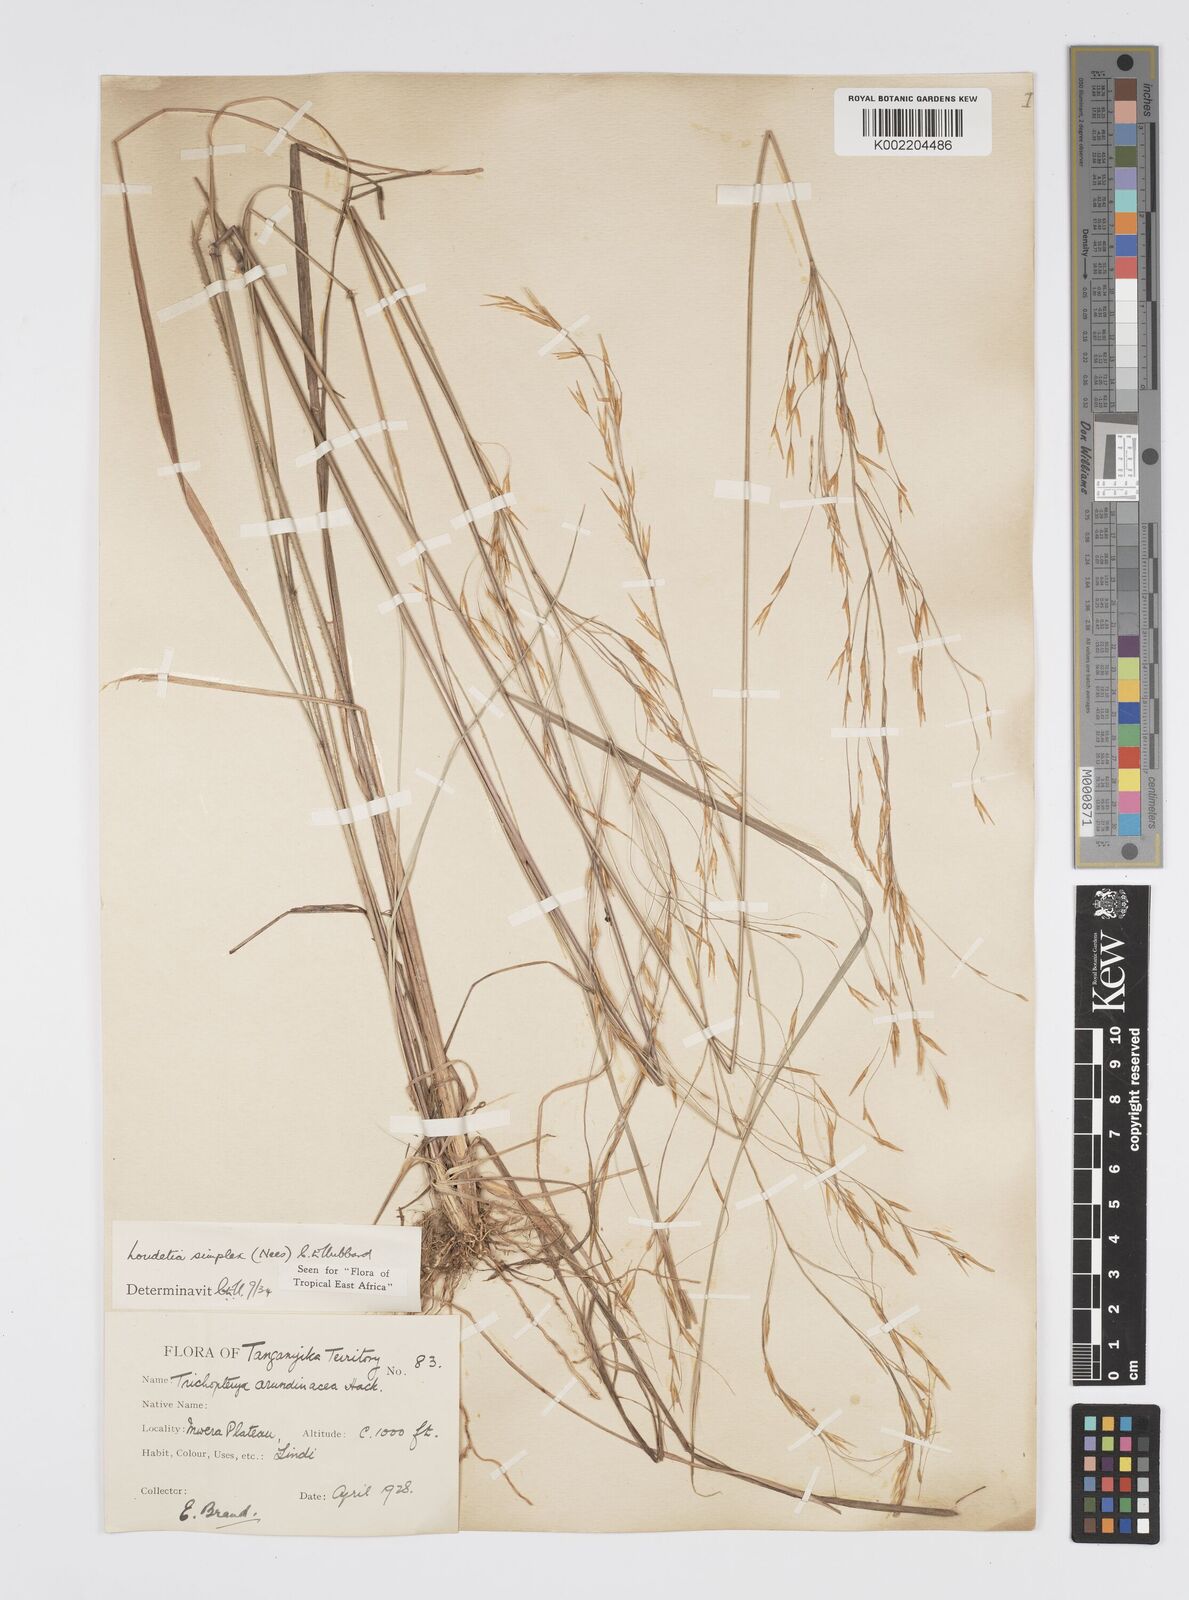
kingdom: Plantae
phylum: Tracheophyta
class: Liliopsida
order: Poales
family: Poaceae
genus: Loudetia
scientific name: Loudetia simplex
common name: Common russet grass
